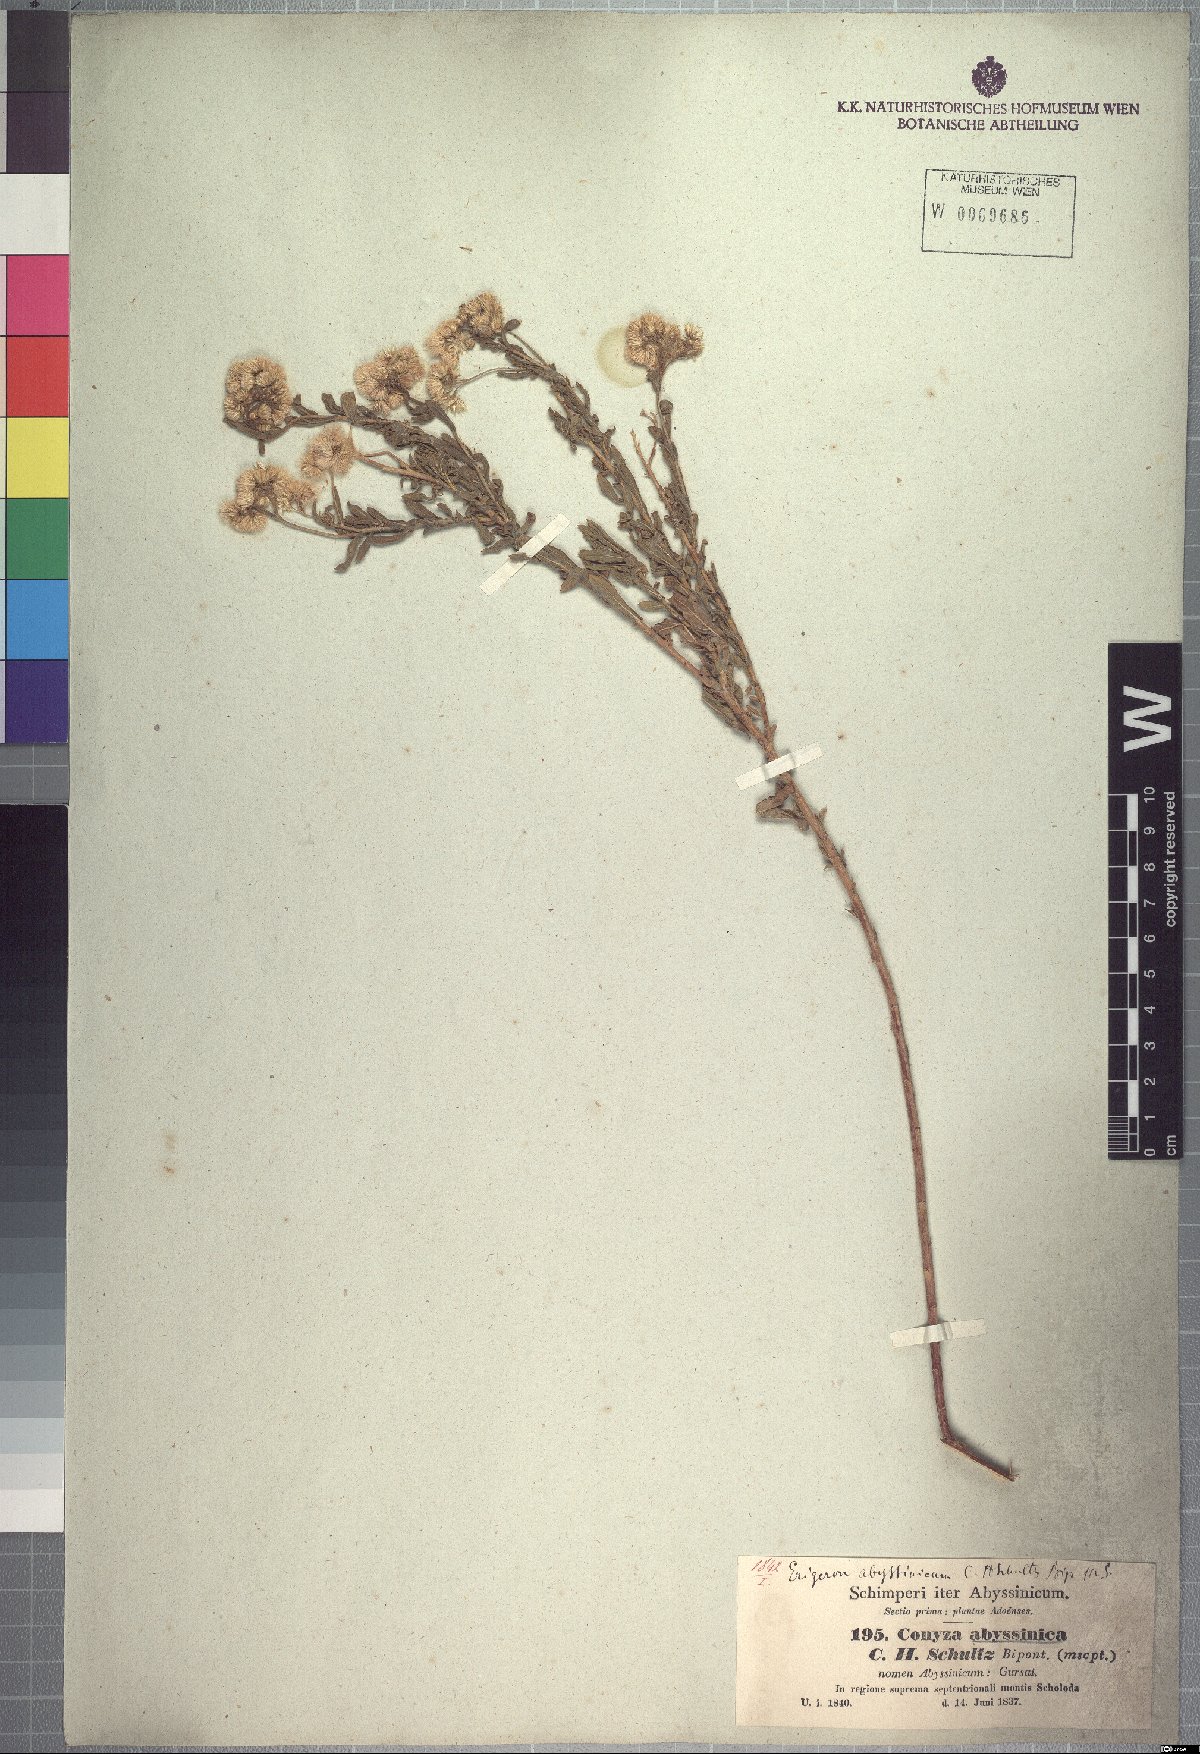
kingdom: Plantae
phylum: Tracheophyta
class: Magnoliopsida
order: Asterales
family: Asteraceae
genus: Conyza
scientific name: Conyza abyssinica
